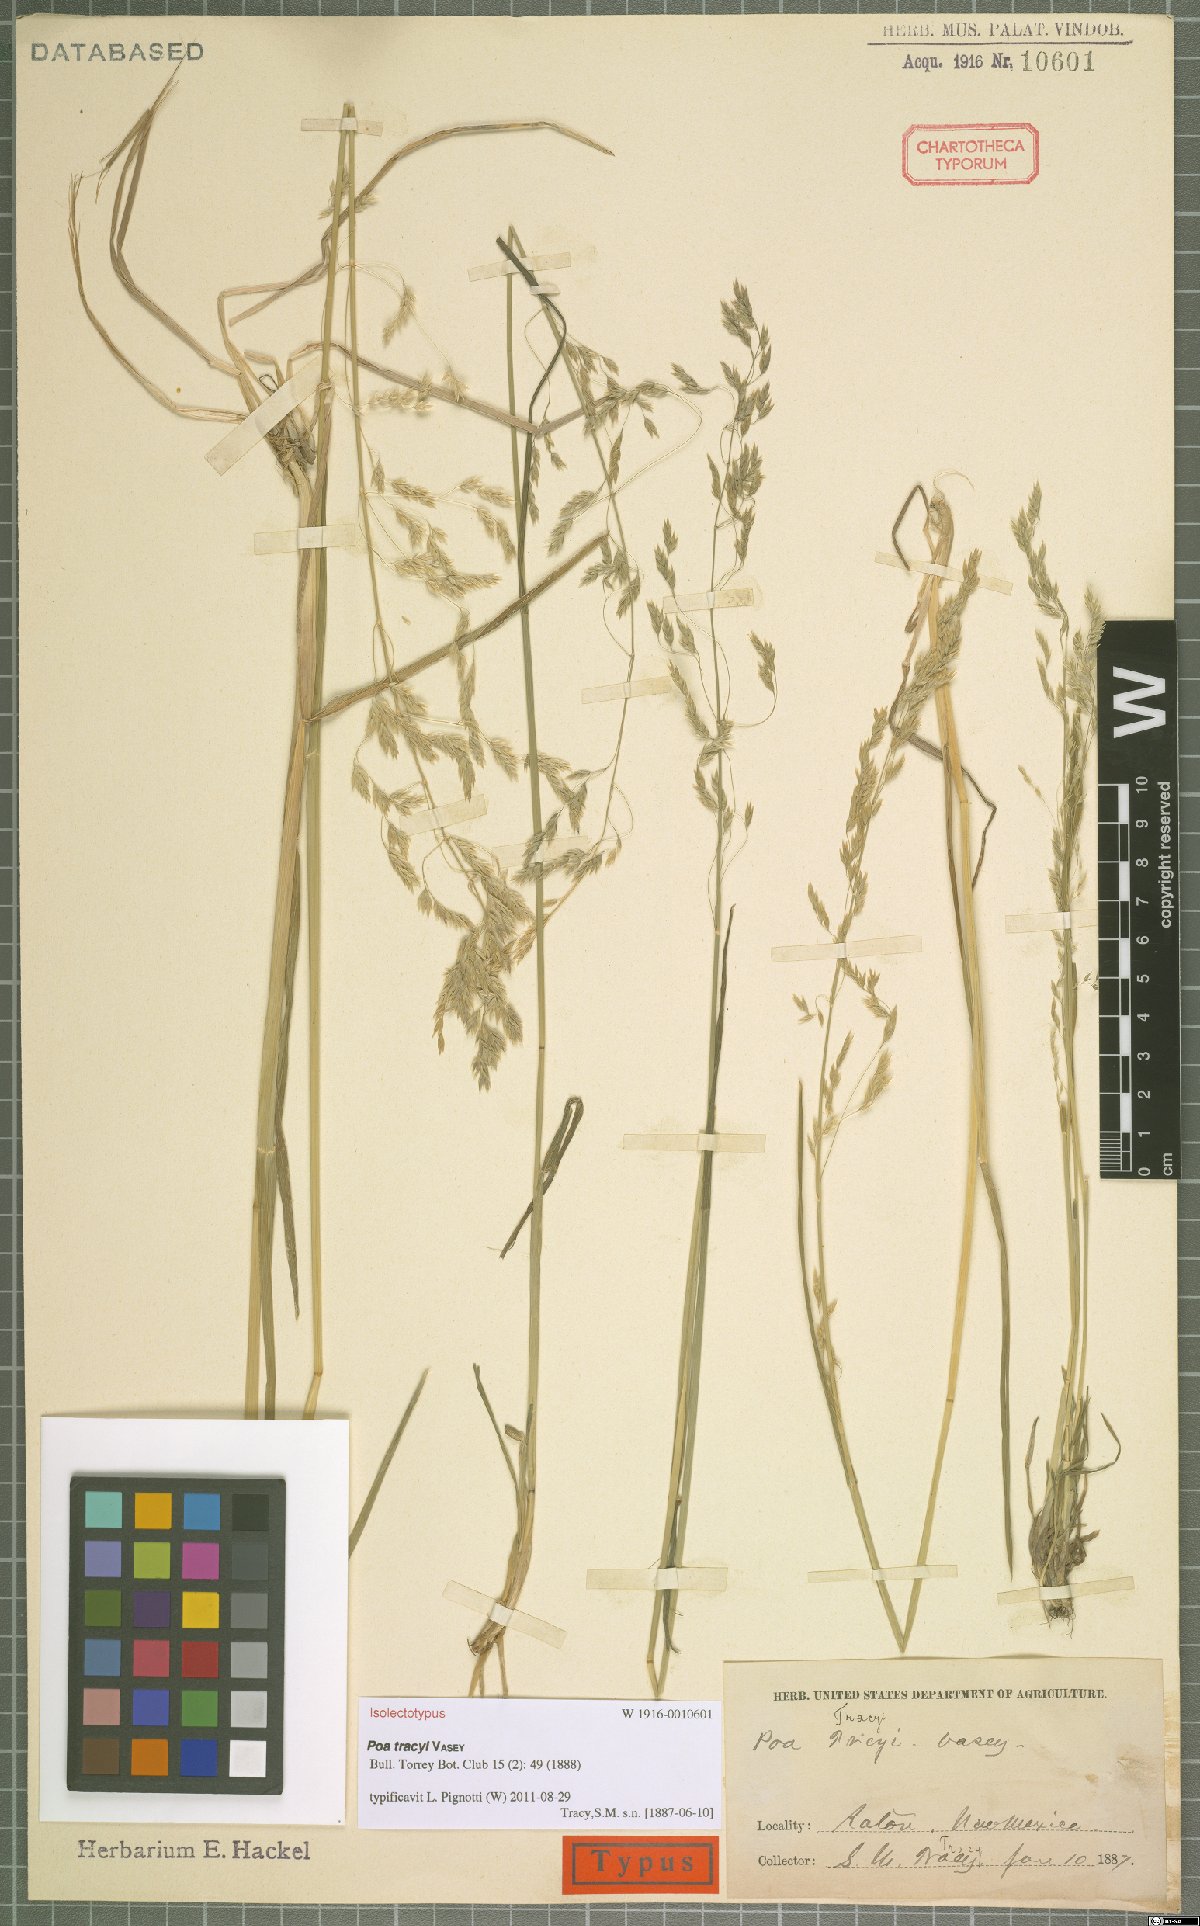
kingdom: Plantae
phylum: Tracheophyta
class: Liliopsida
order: Poales
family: Poaceae
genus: Poa
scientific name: Poa tracyi
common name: Tracy's bluegrass
